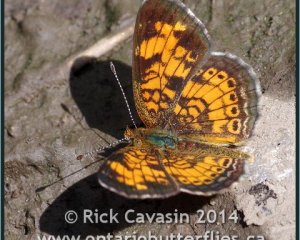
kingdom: Animalia
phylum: Arthropoda
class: Insecta
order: Lepidoptera
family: Nymphalidae
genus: Phyciodes
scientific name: Phyciodes tharos
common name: Pearl Crescent
